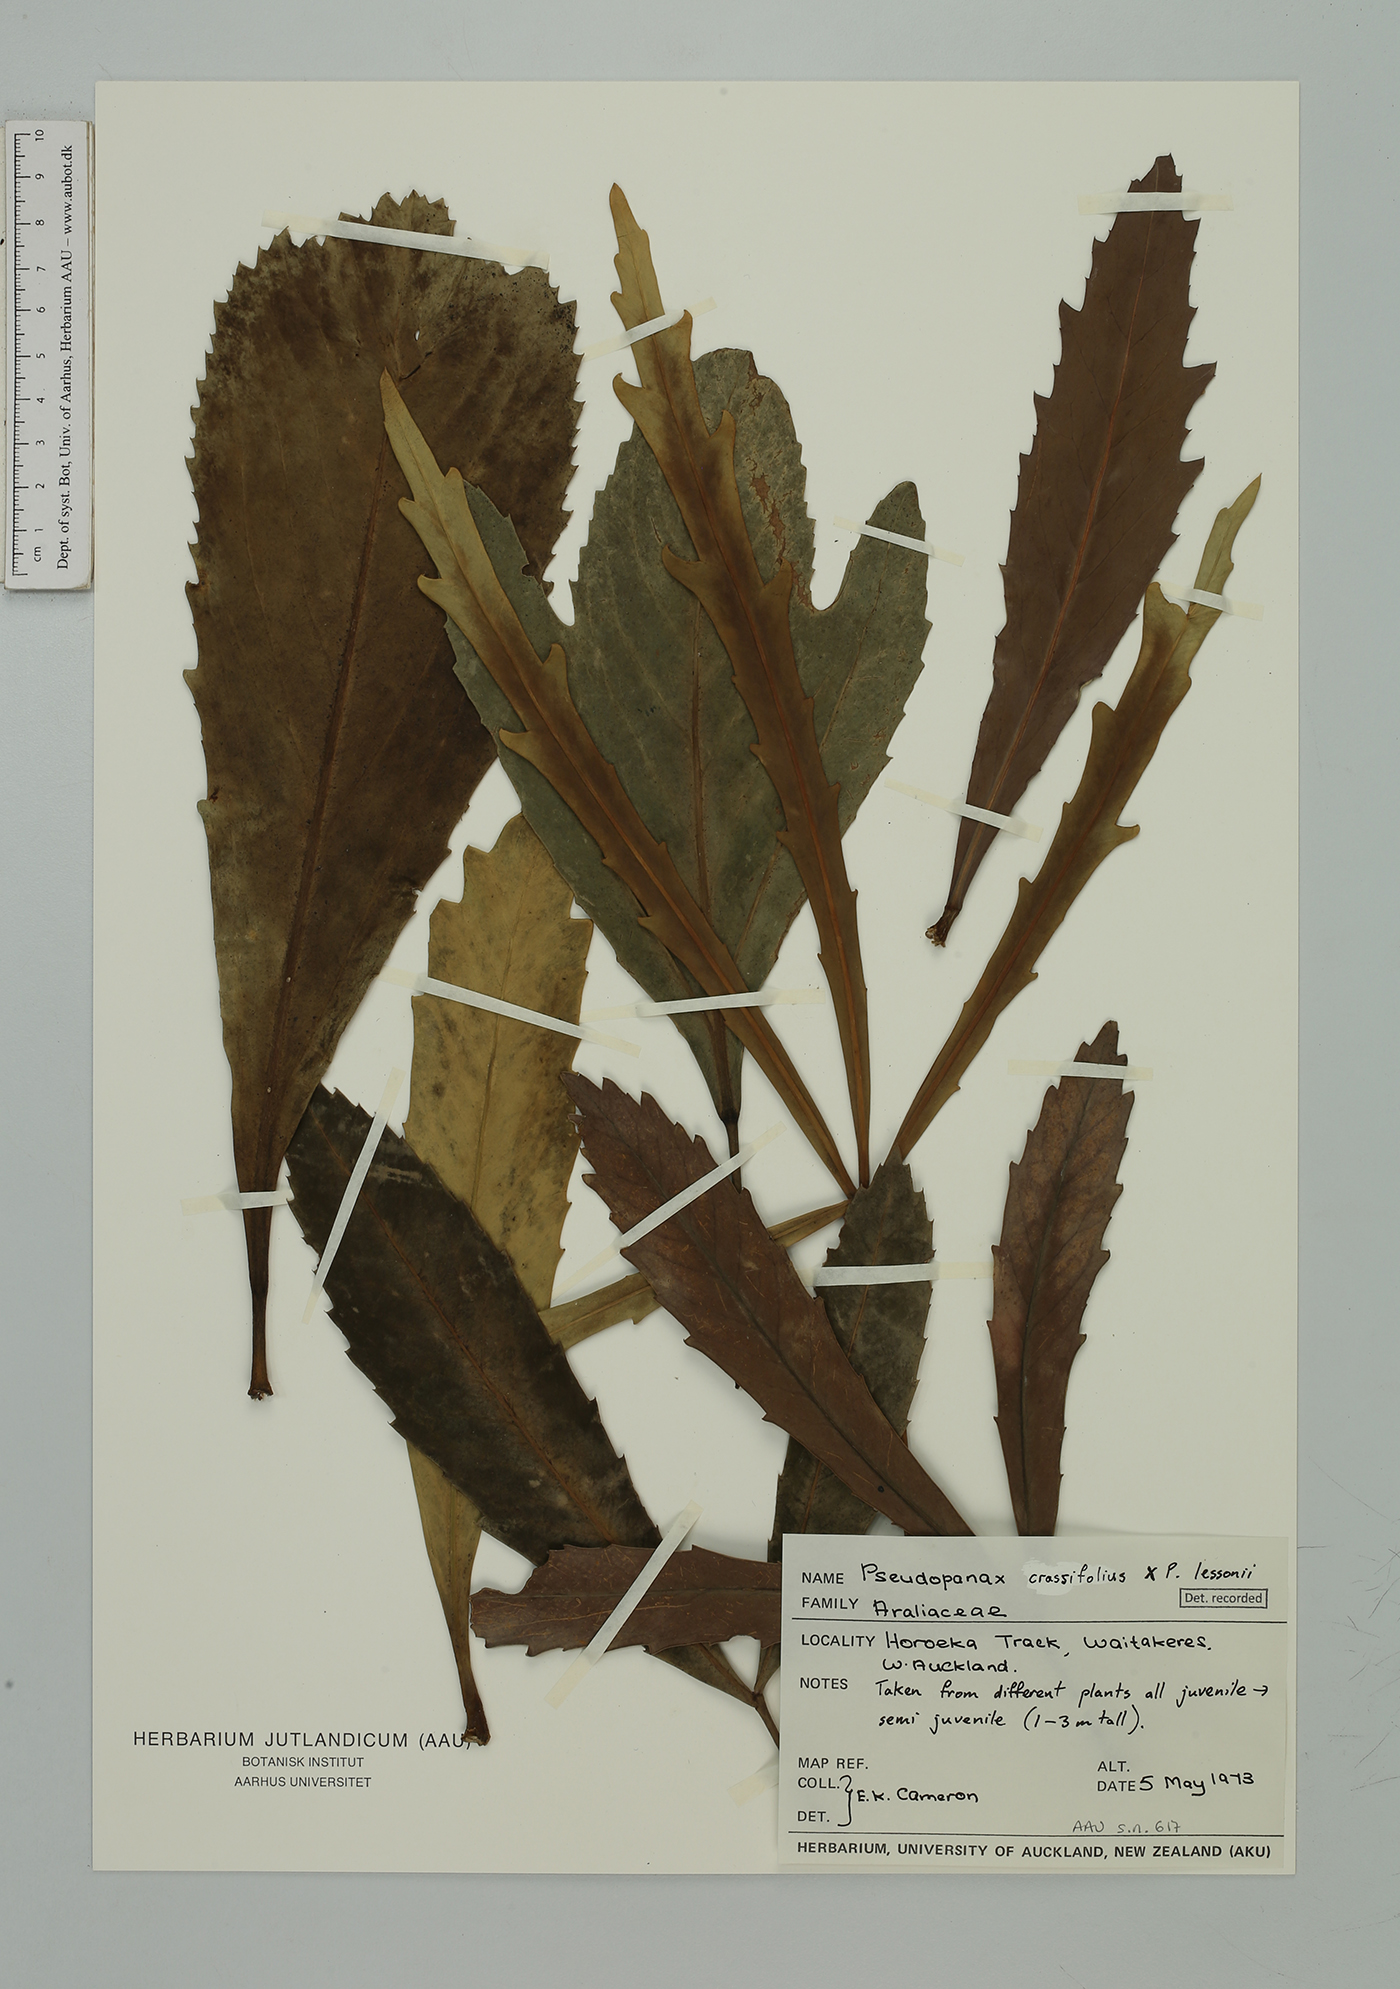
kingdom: Plantae
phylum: Tracheophyta
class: Magnoliopsida
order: Apiales
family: Araliaceae
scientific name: Araliaceae
